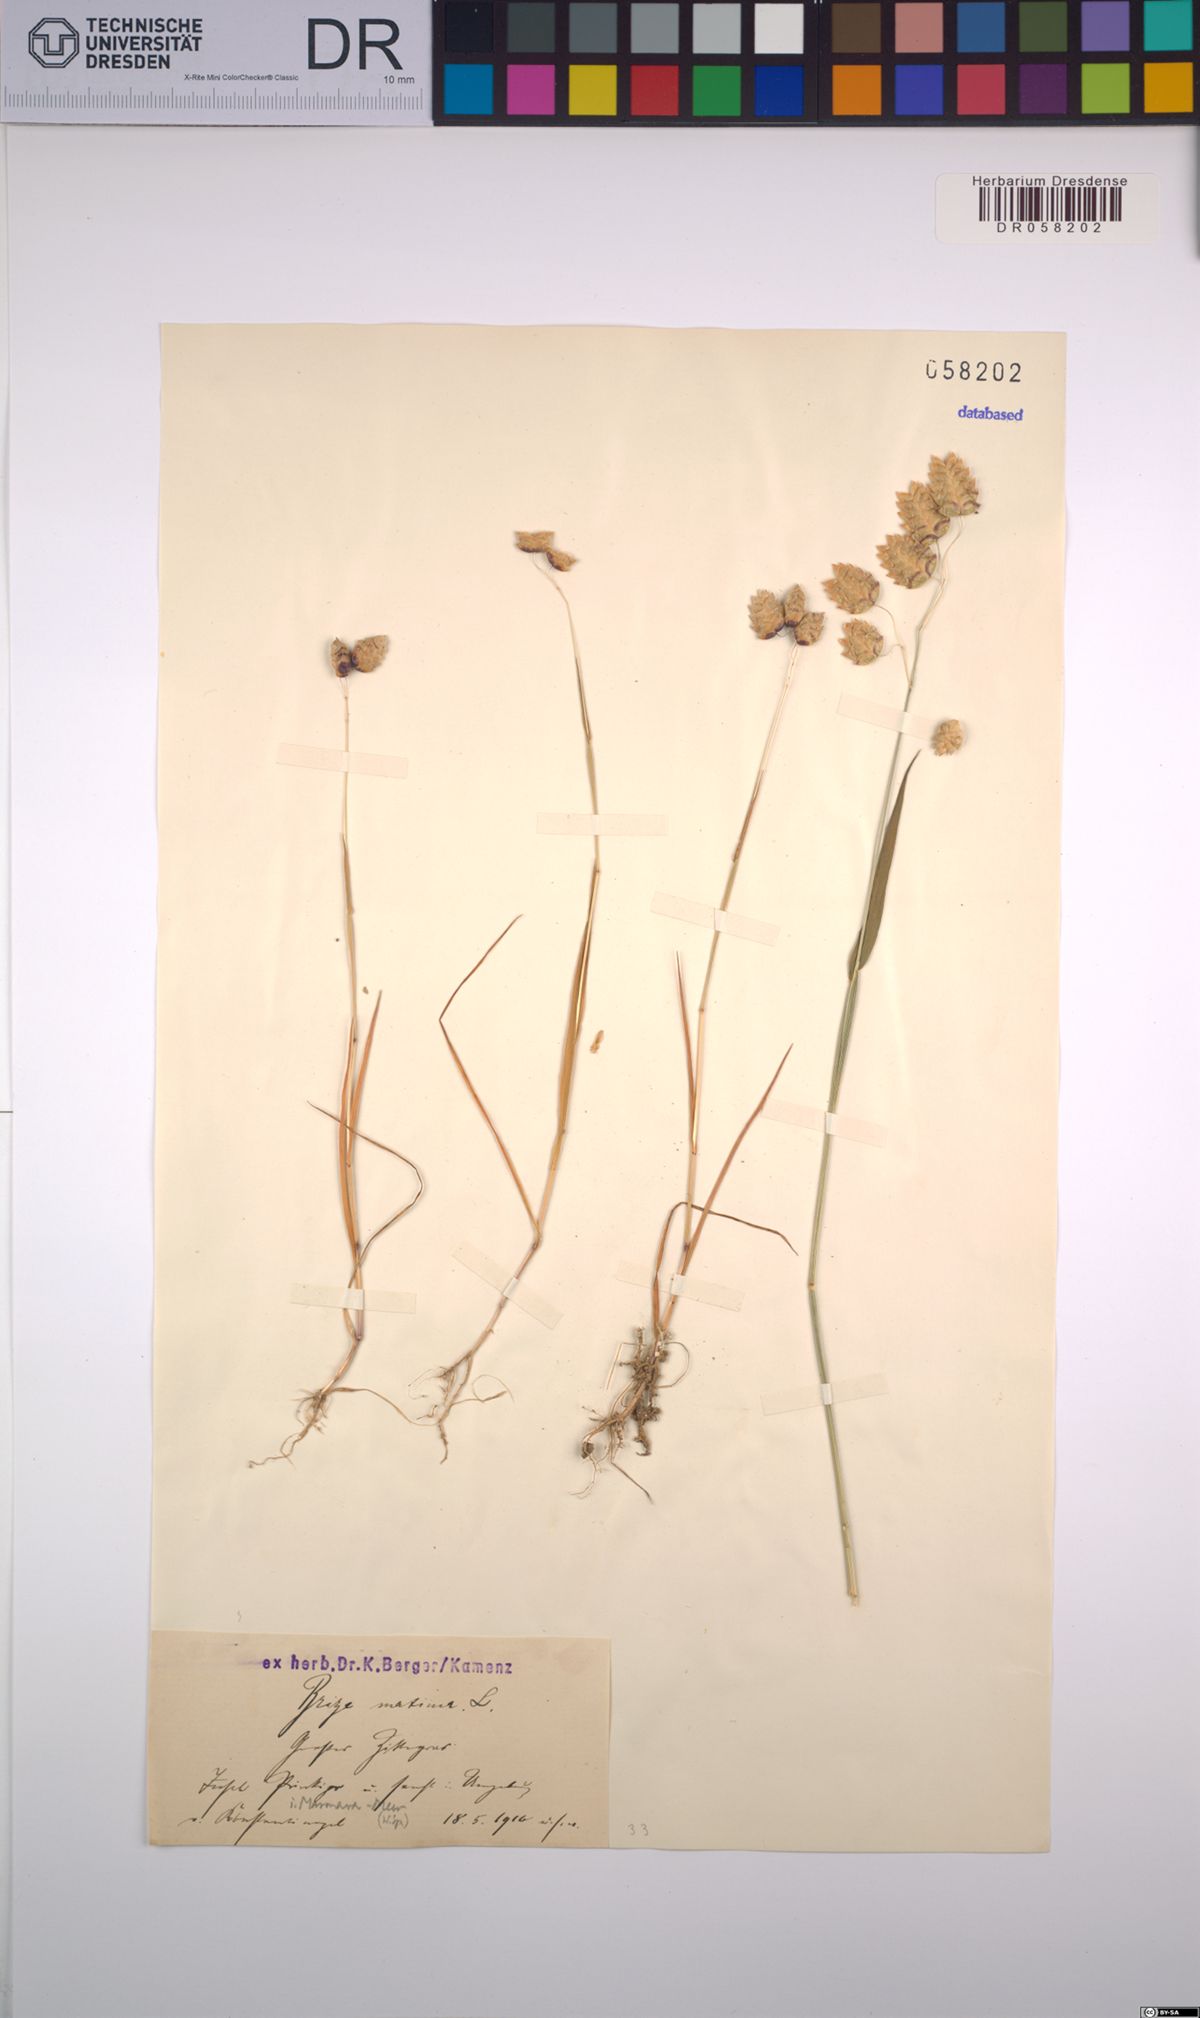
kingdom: Plantae
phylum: Tracheophyta
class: Liliopsida
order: Poales
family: Poaceae
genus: Briza
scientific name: Briza maxima
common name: Big quakinggrass
